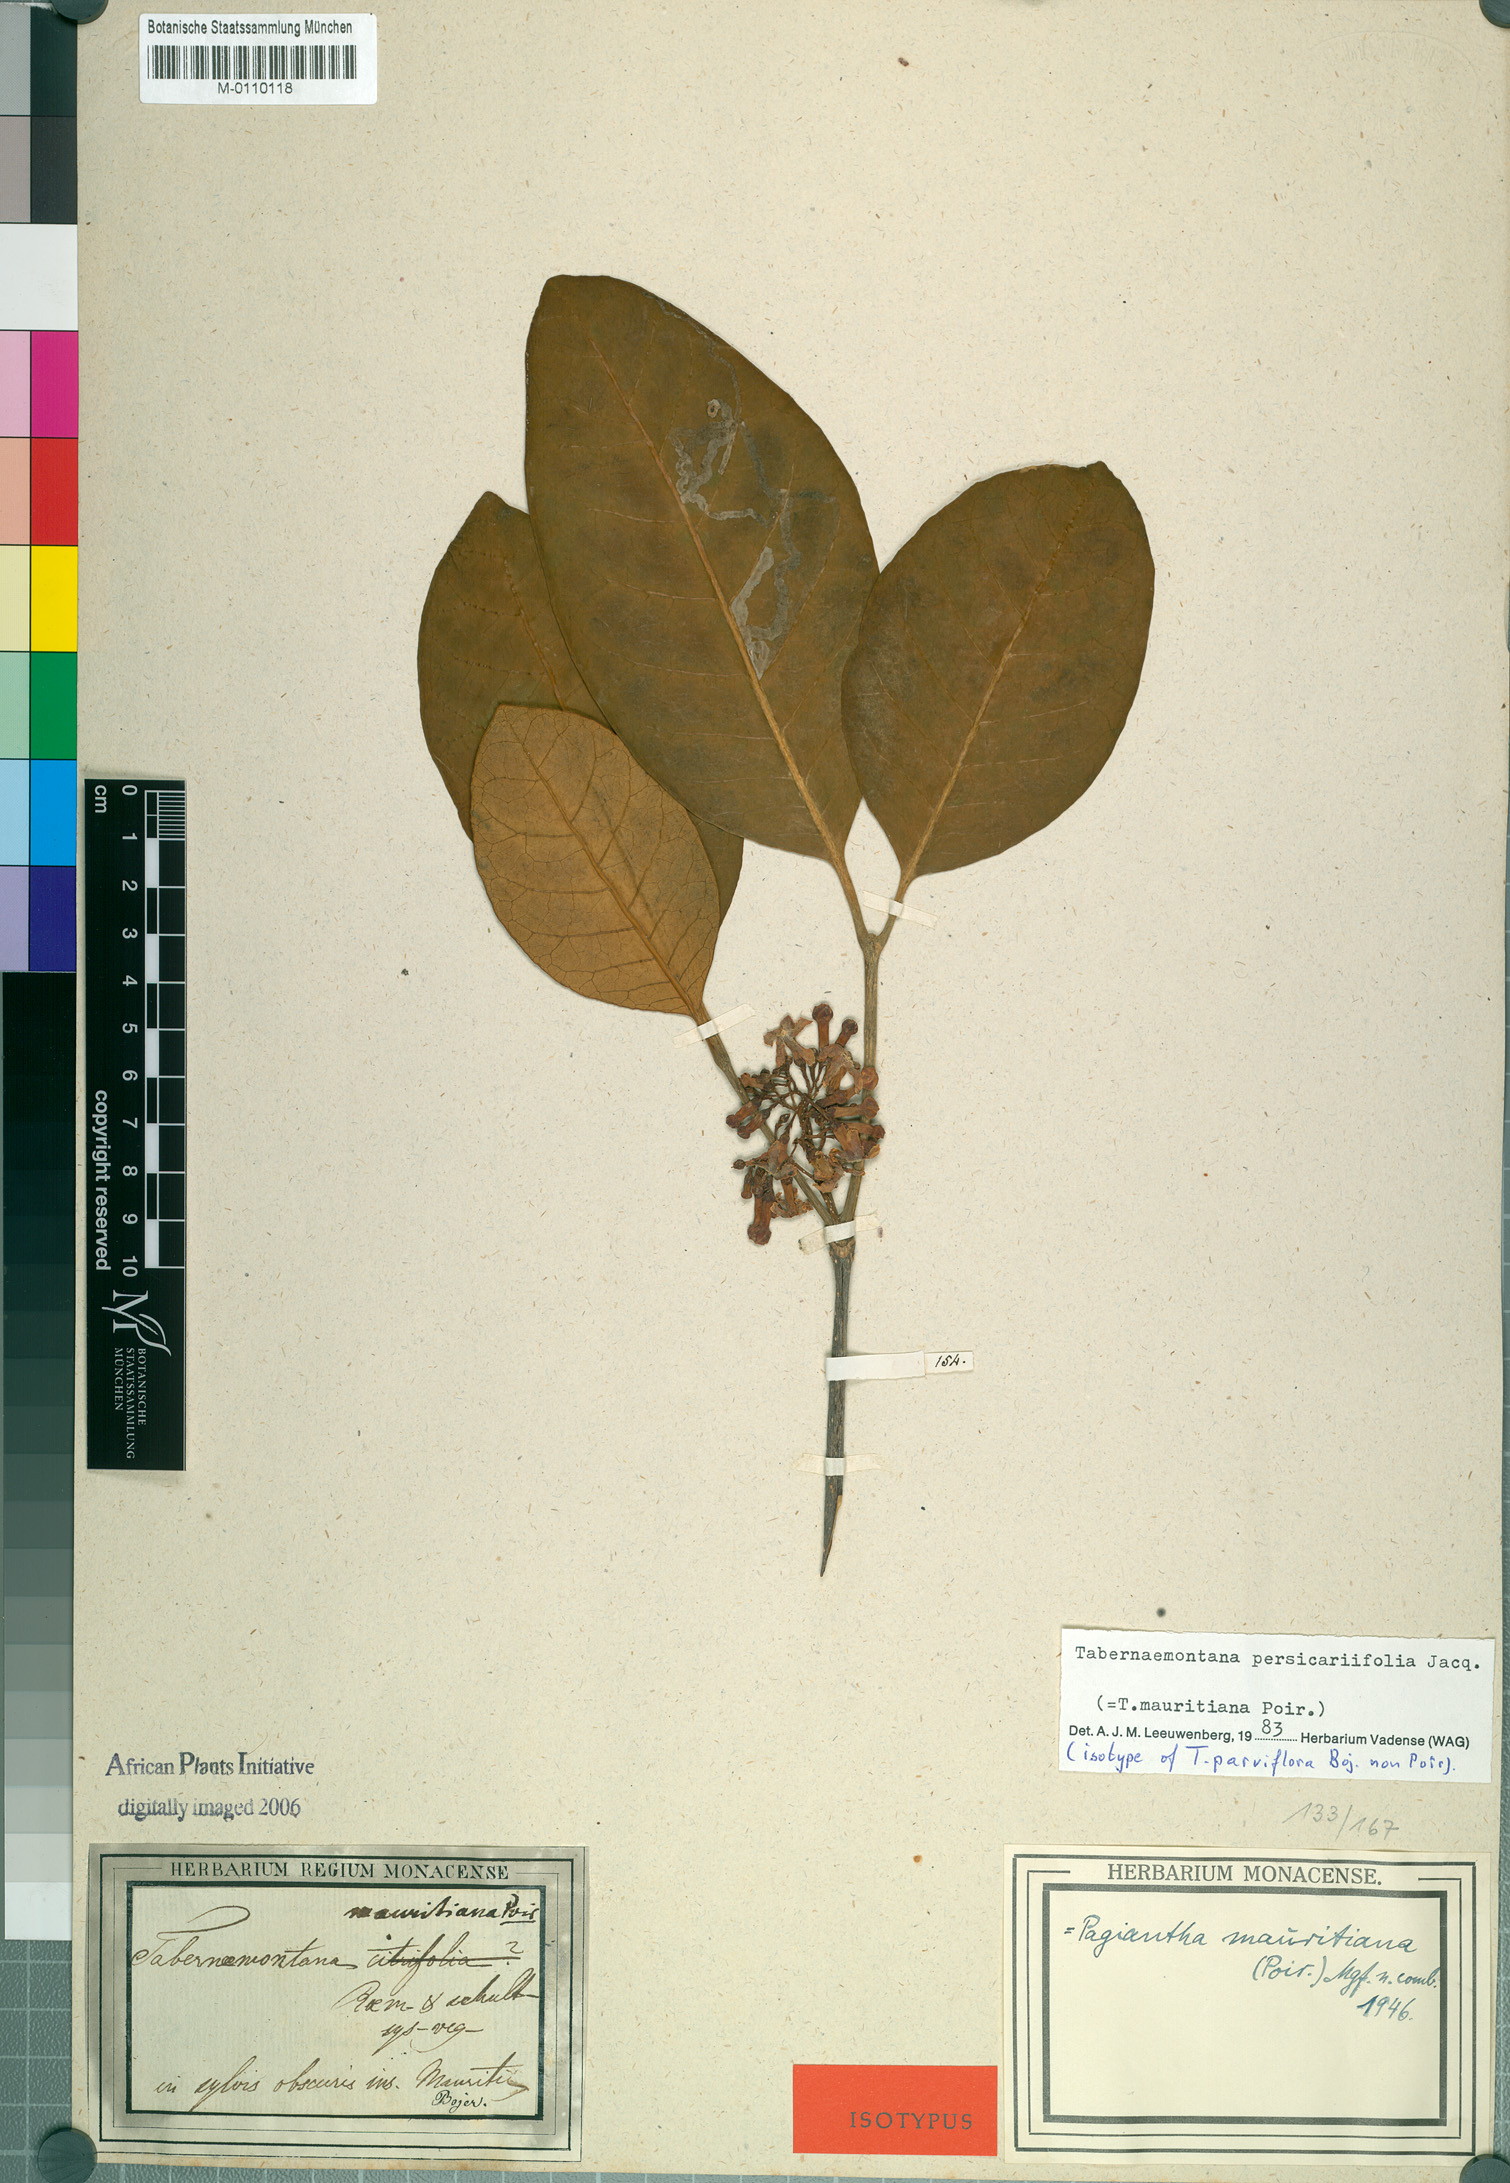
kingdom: Plantae
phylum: Tracheophyta
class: Magnoliopsida
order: Gentianales
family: Apocynaceae
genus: Tabernaemontana
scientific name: Tabernaemontana persicariifolia
